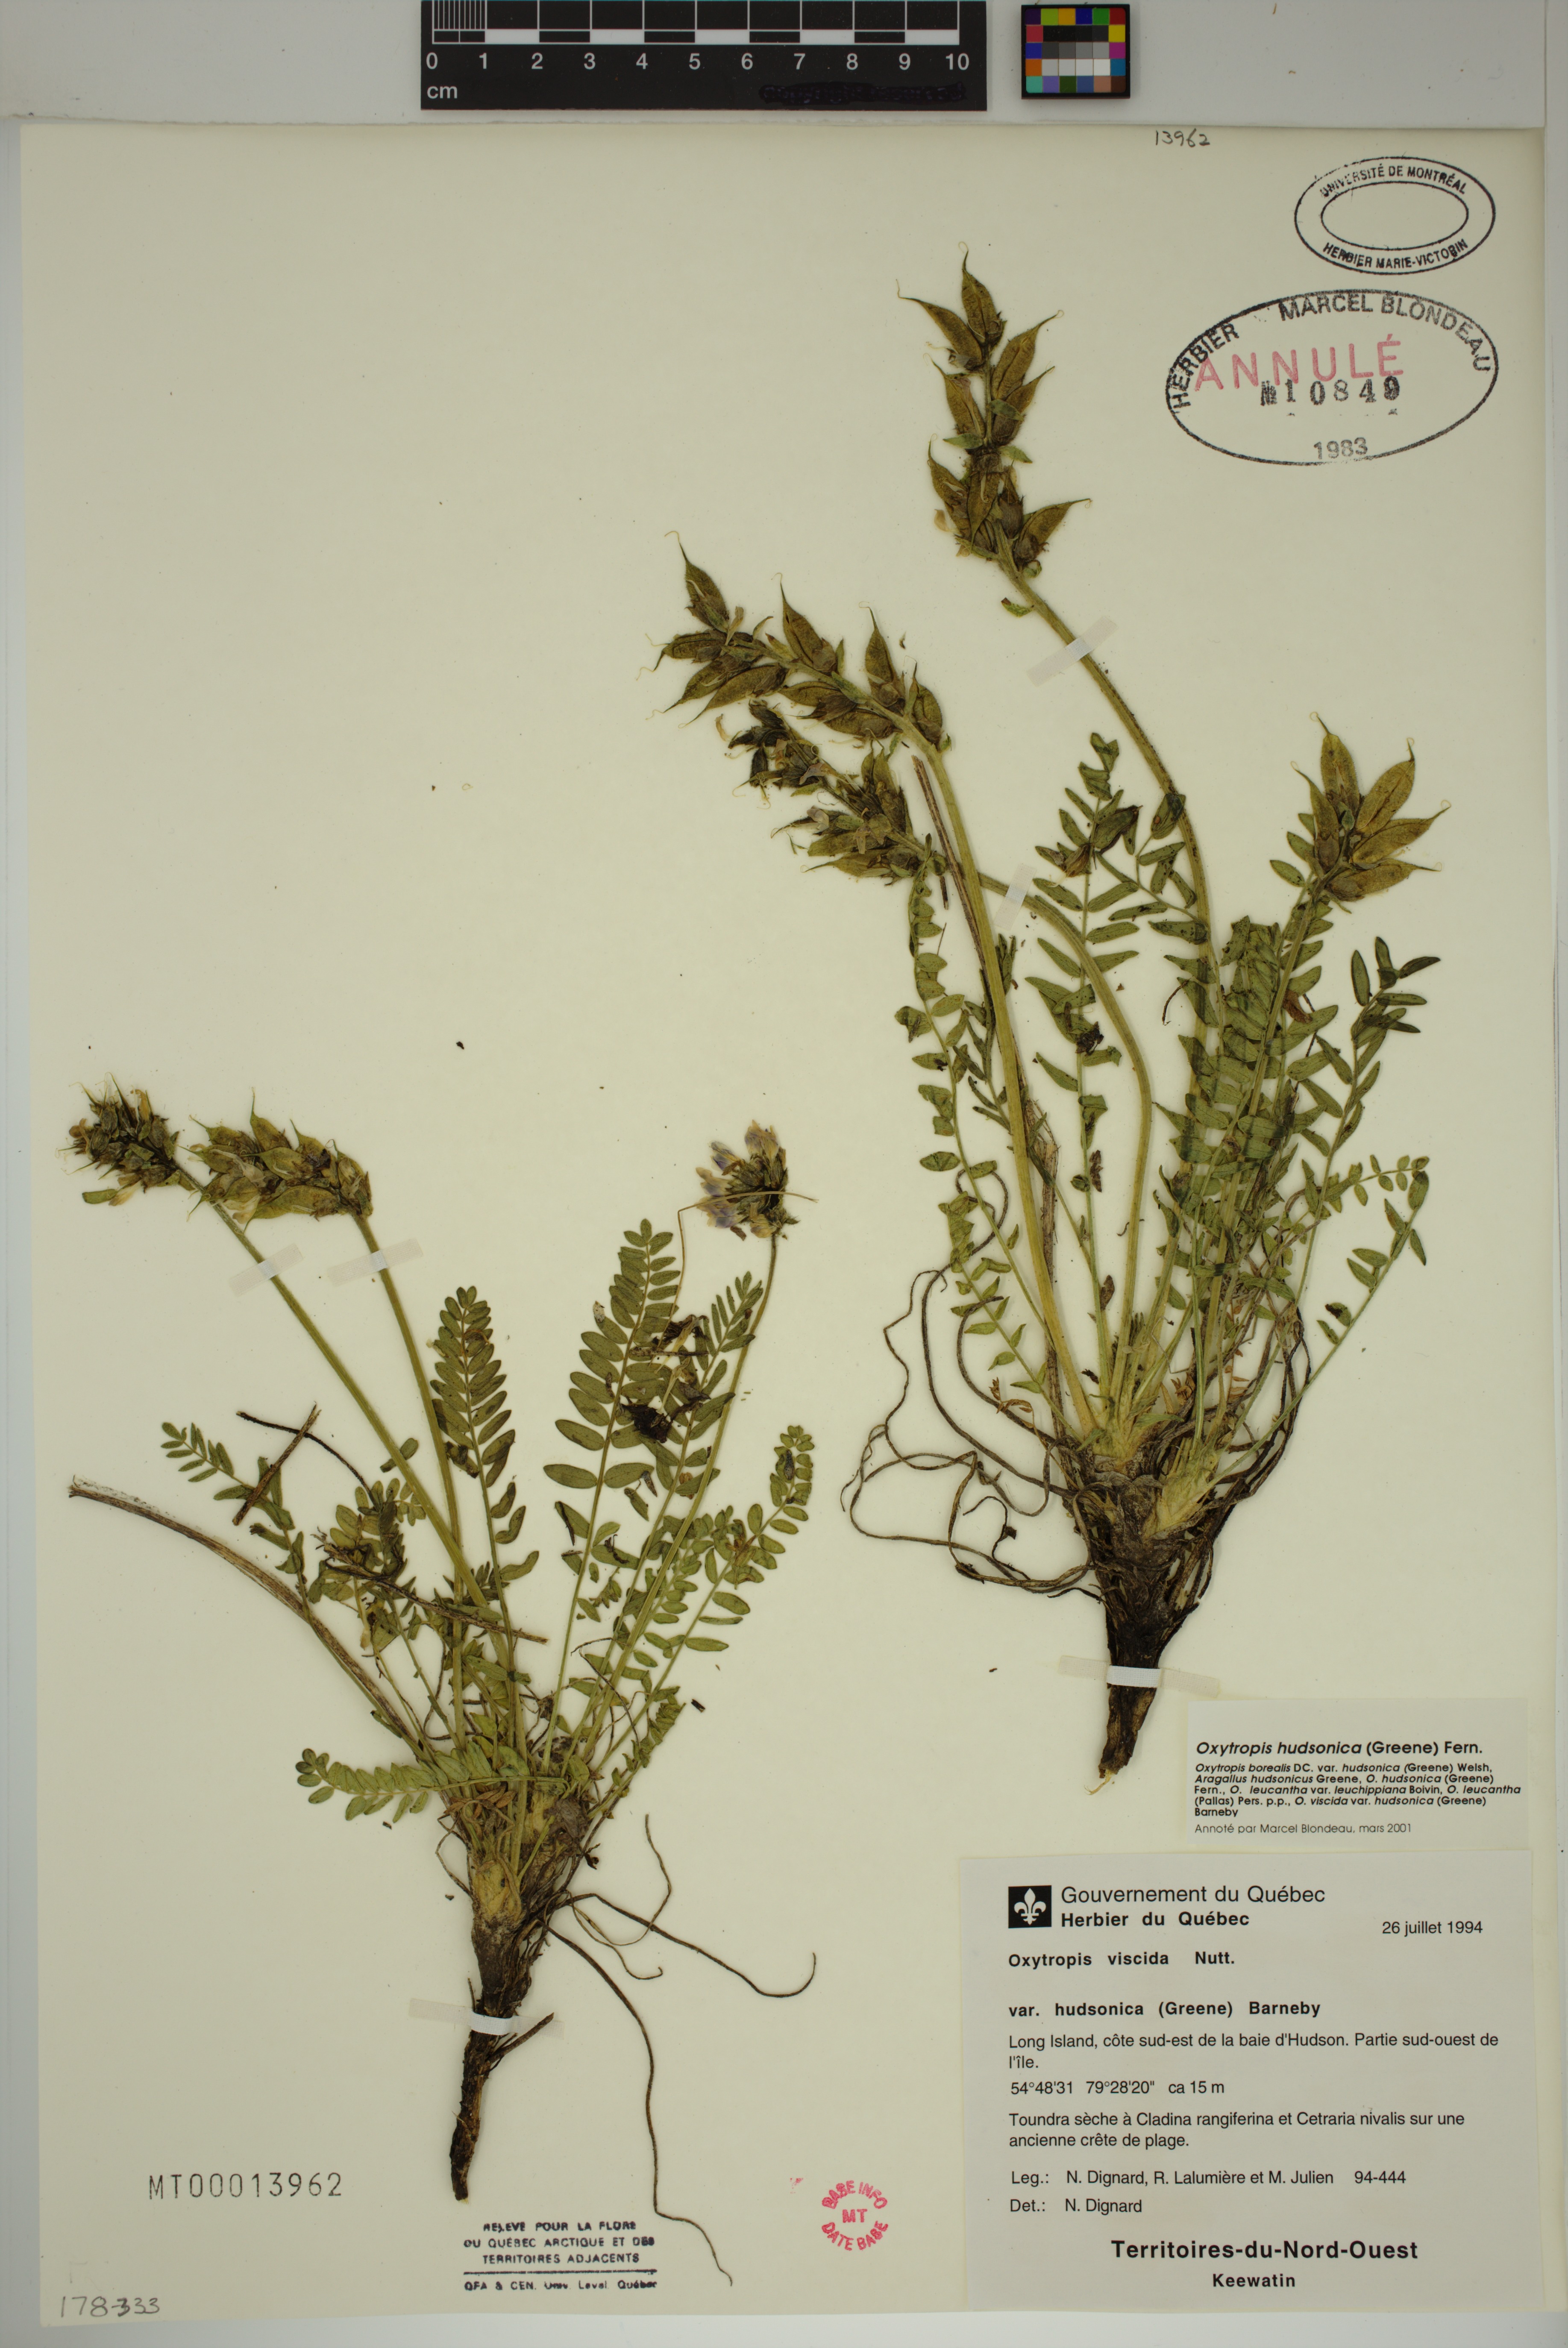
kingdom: Plantae
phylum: Tracheophyta
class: Magnoliopsida
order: Fabales
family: Fabaceae
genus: Oxytropis
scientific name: Oxytropis hudsonica
